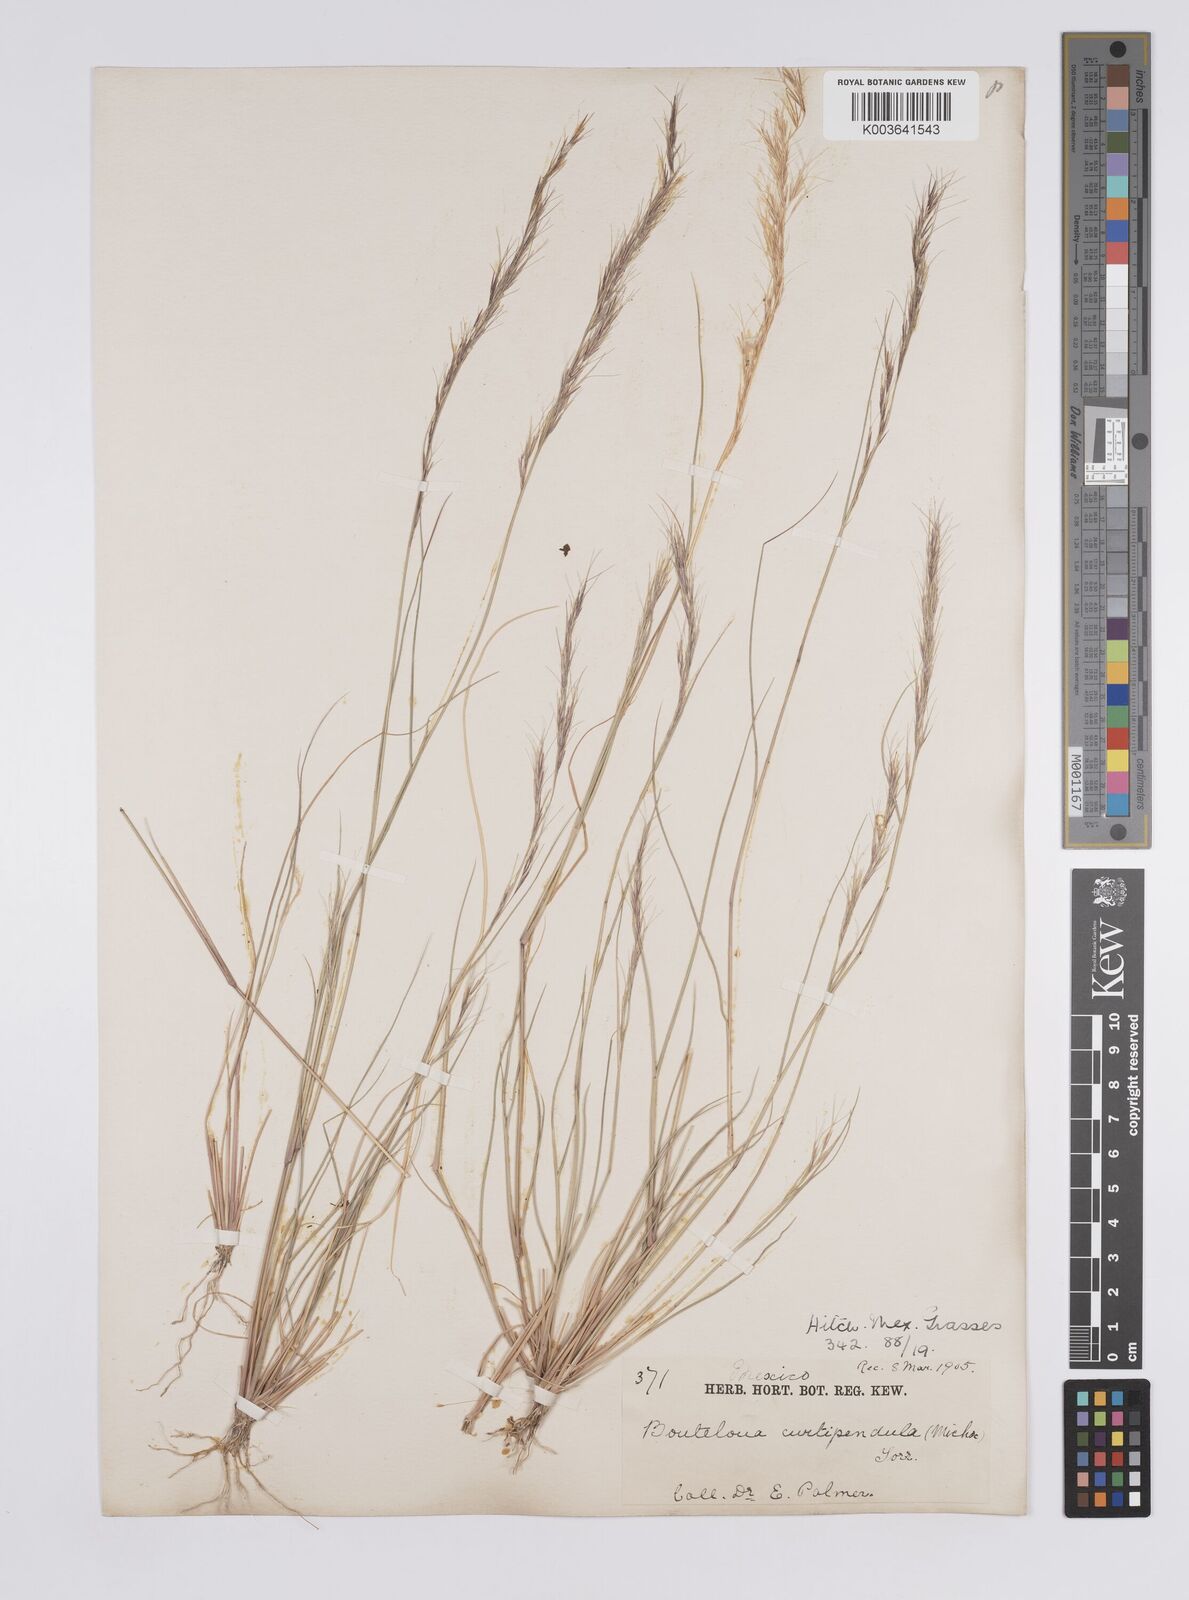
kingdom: Plantae
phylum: Tracheophyta
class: Liliopsida
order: Poales
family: Poaceae
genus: Aristida
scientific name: Aristida
